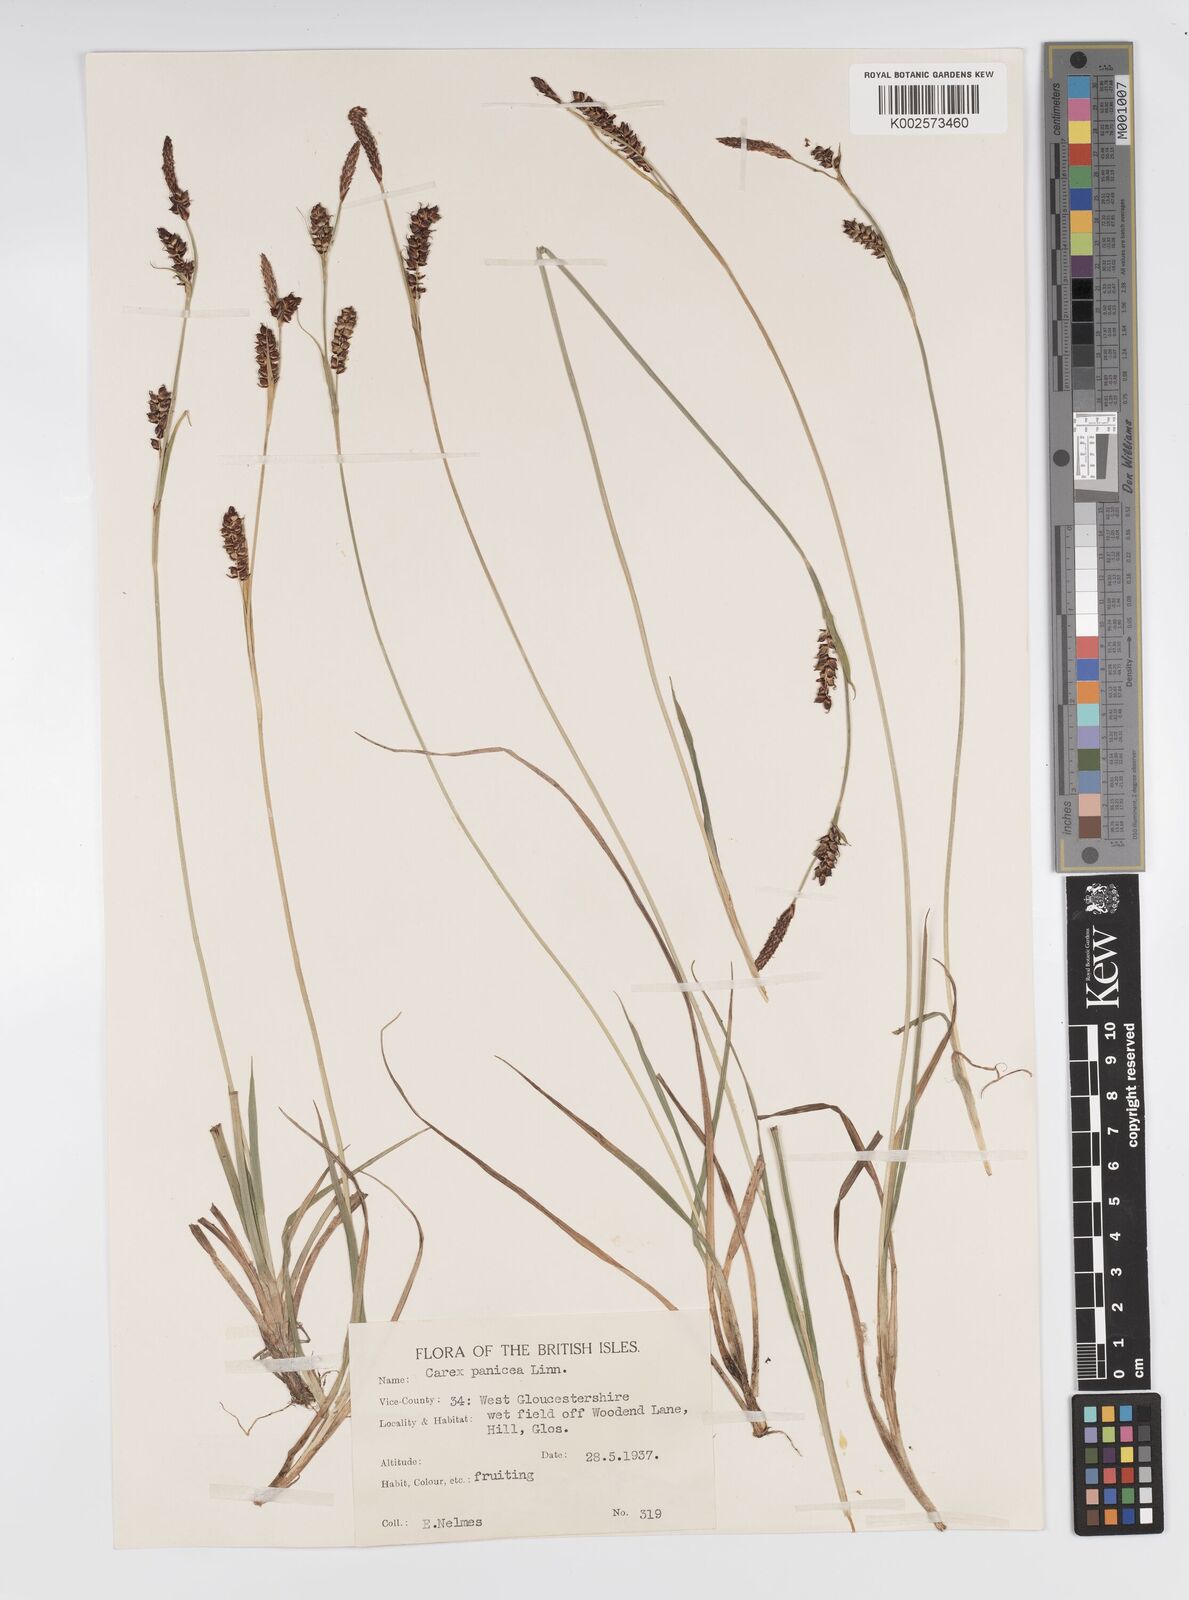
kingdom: Plantae
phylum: Tracheophyta
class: Liliopsida
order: Poales
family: Cyperaceae
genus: Carex
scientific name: Carex panicea
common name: Carnation sedge
